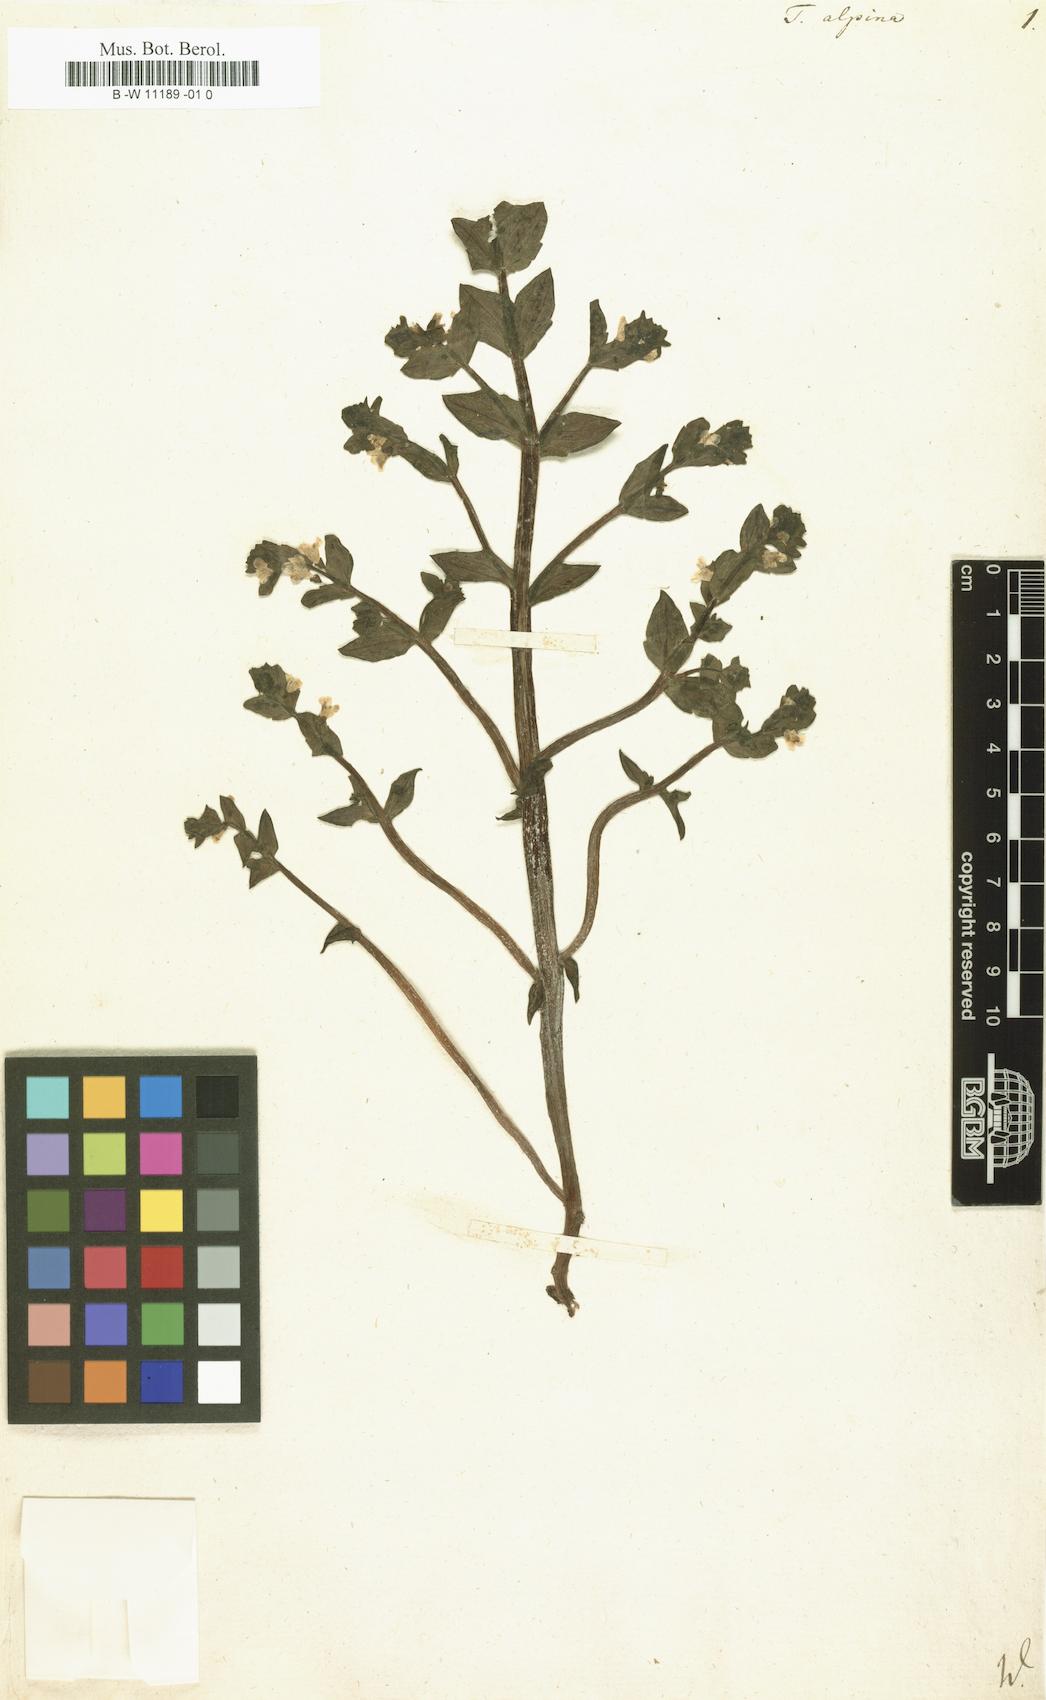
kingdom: Plantae
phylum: Tracheophyta
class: Magnoliopsida
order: Lamiales
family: Orobanchaceae
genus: Tozzia
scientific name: Tozzia alpina
